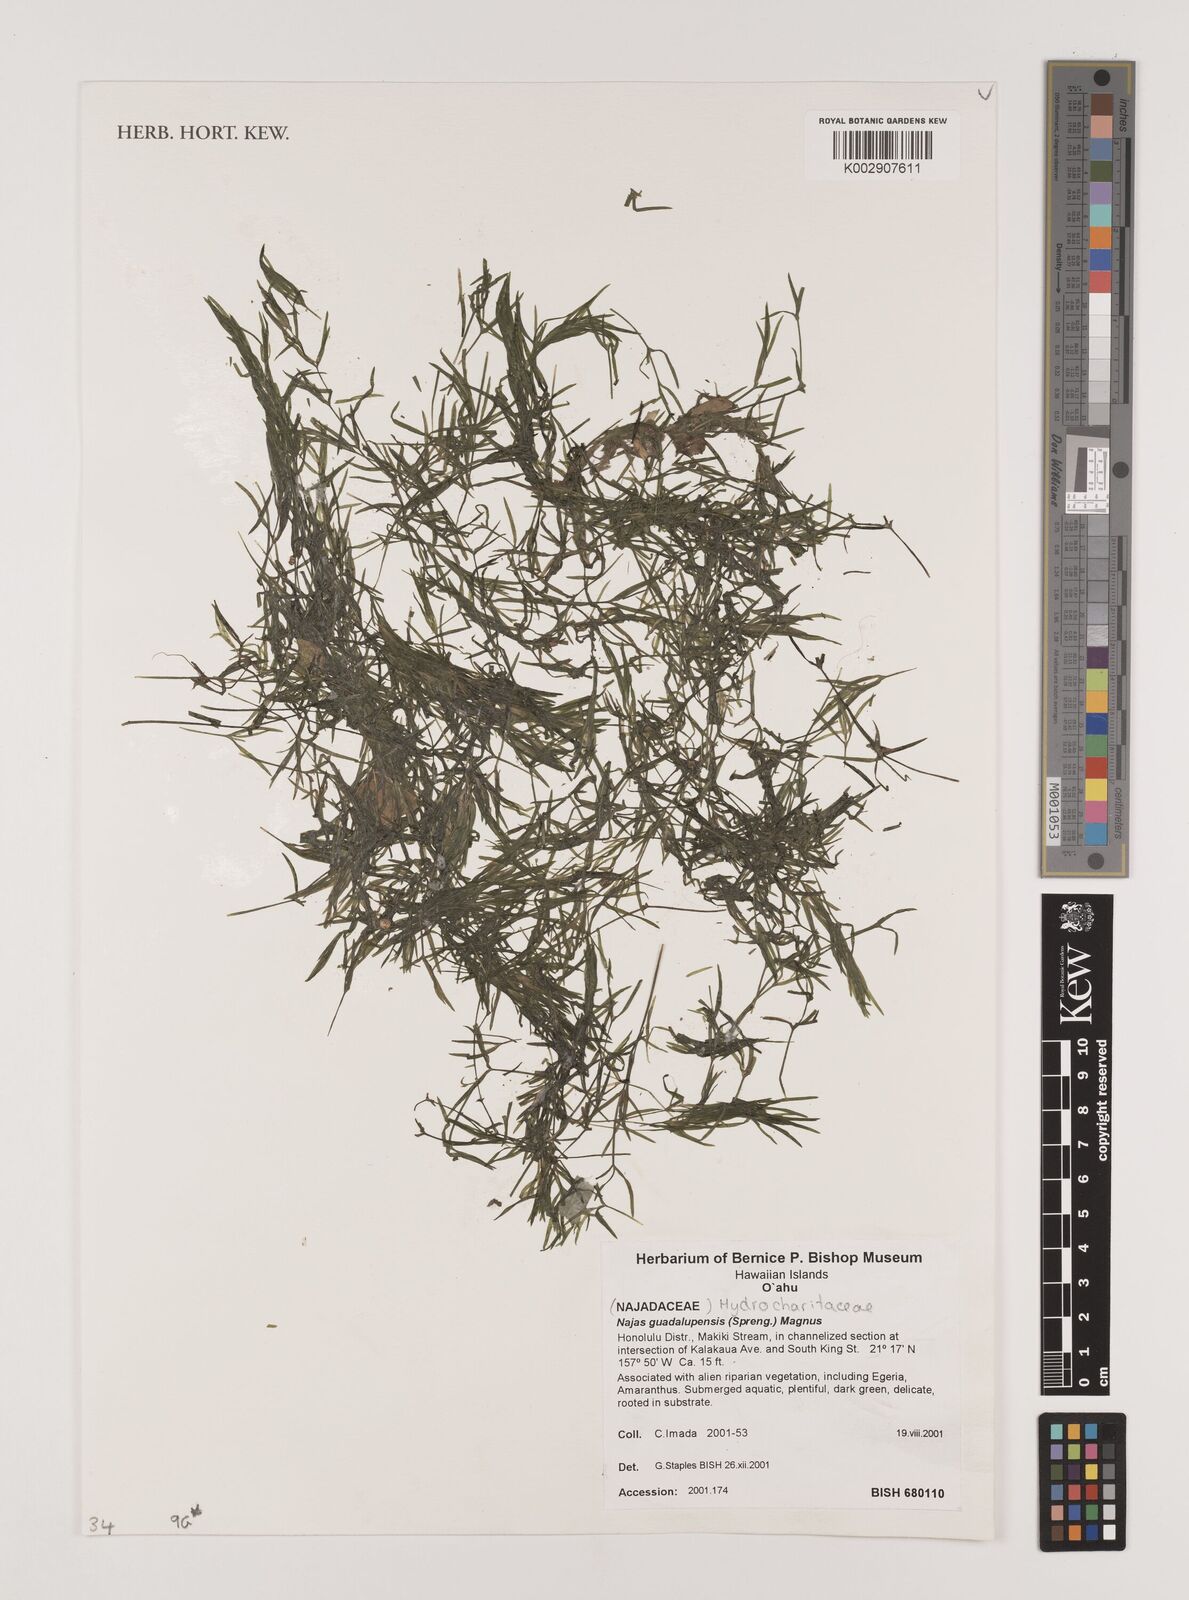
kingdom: Plantae
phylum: Tracheophyta
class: Liliopsida
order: Alismatales
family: Hydrocharitaceae
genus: Najas
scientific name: Najas marina
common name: Holly-leaved naiad
